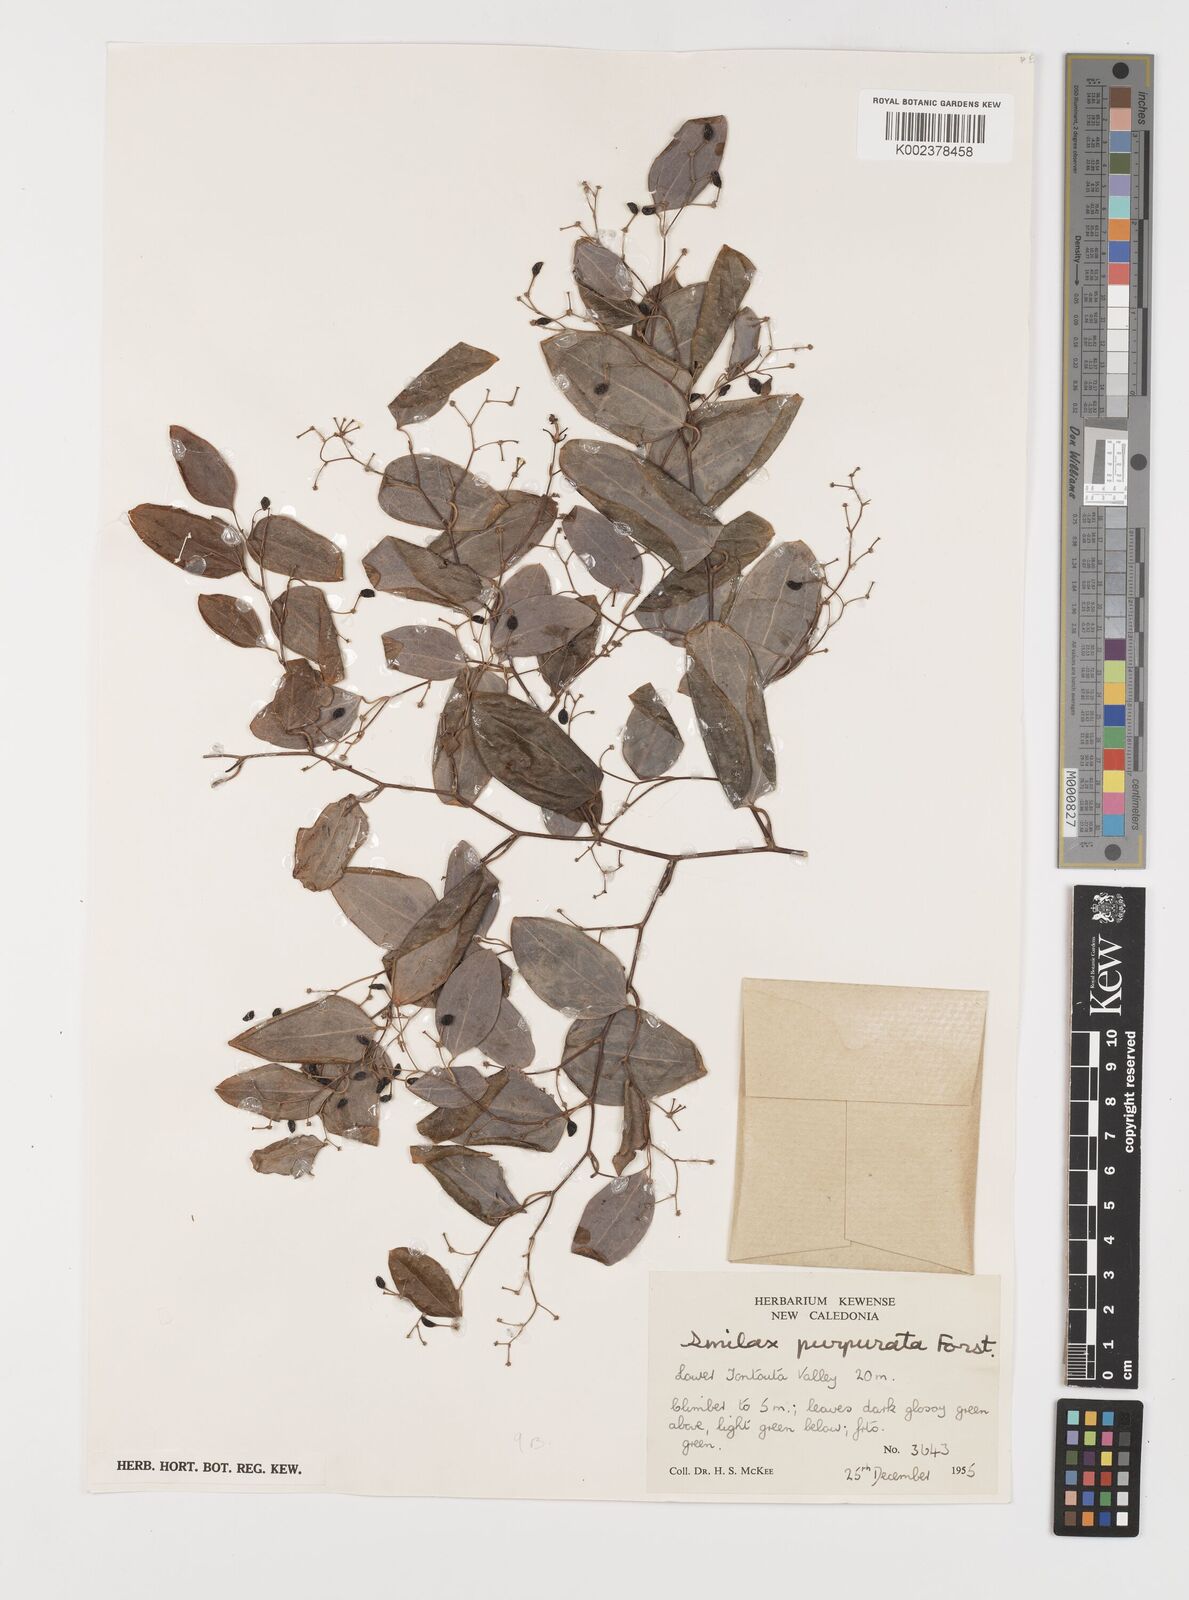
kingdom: Plantae
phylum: Tracheophyta
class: Liliopsida
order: Liliales
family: Smilacaceae
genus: Smilax
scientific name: Smilax purpurata
